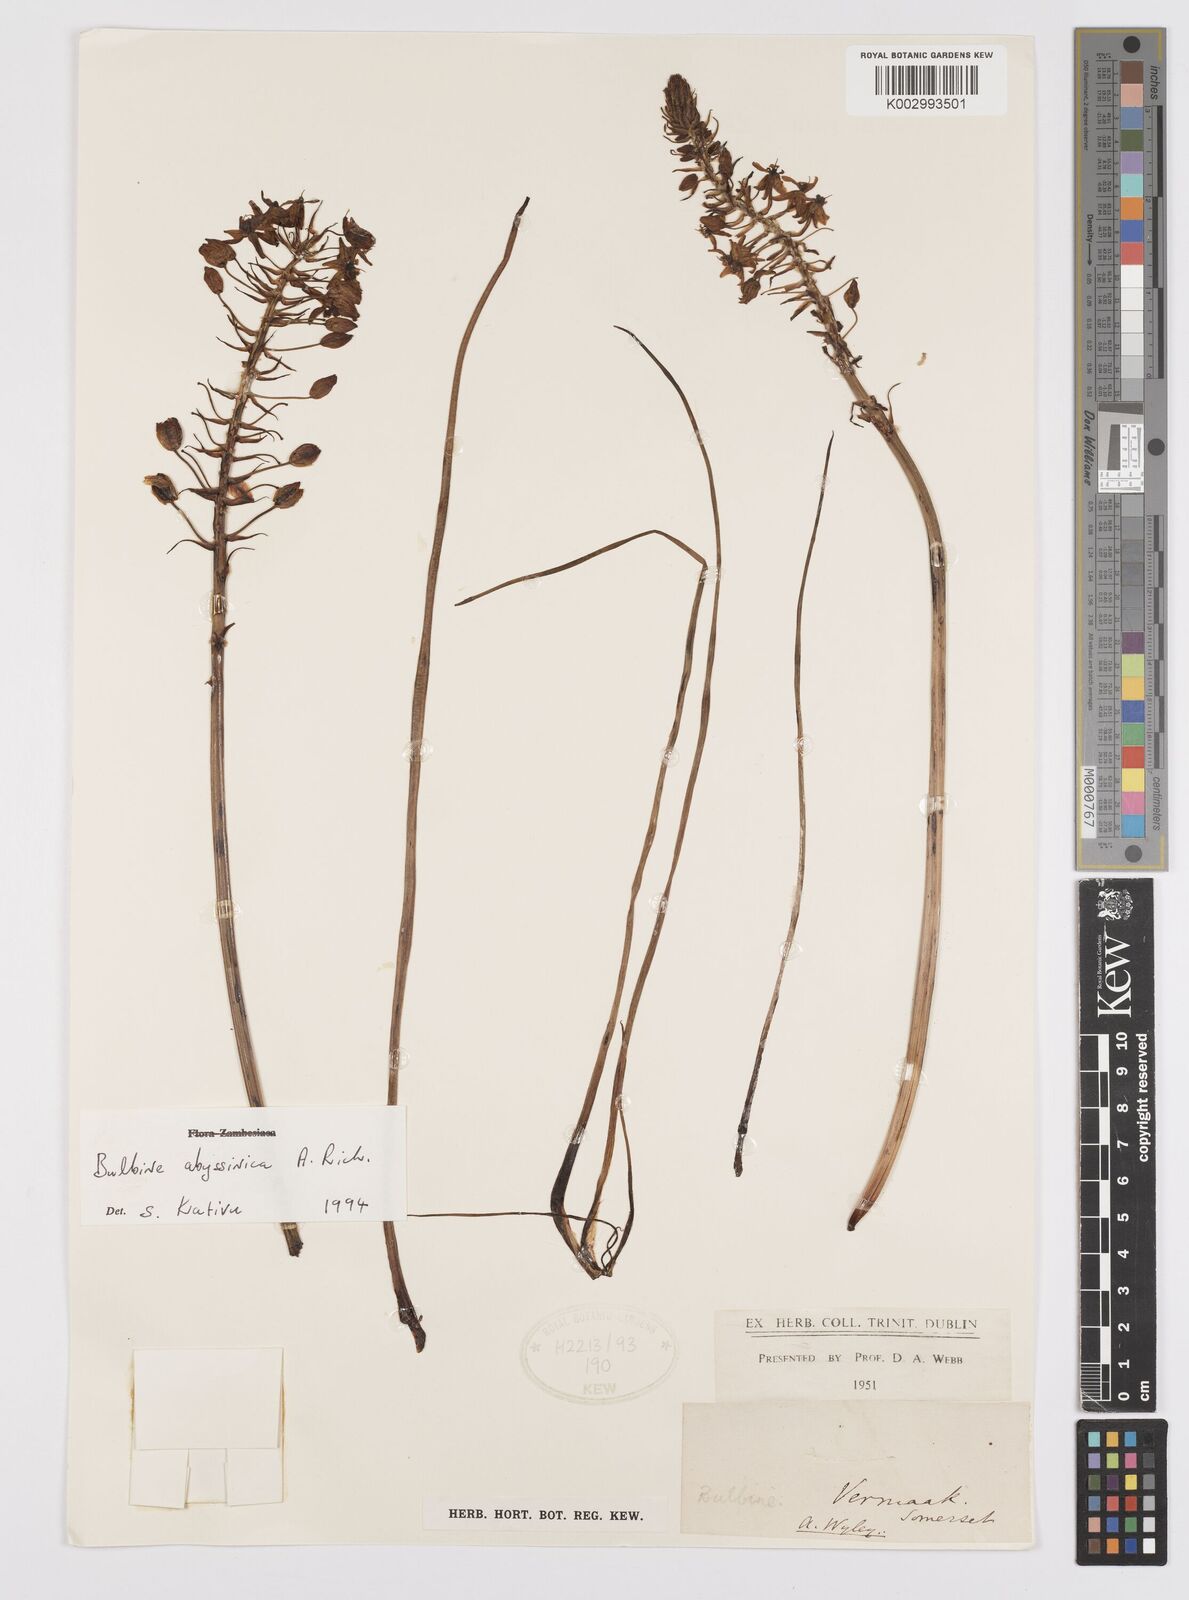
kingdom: Plantae
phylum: Tracheophyta
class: Liliopsida
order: Asparagales
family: Asphodelaceae
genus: Bulbine
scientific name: Bulbine abyssinica
